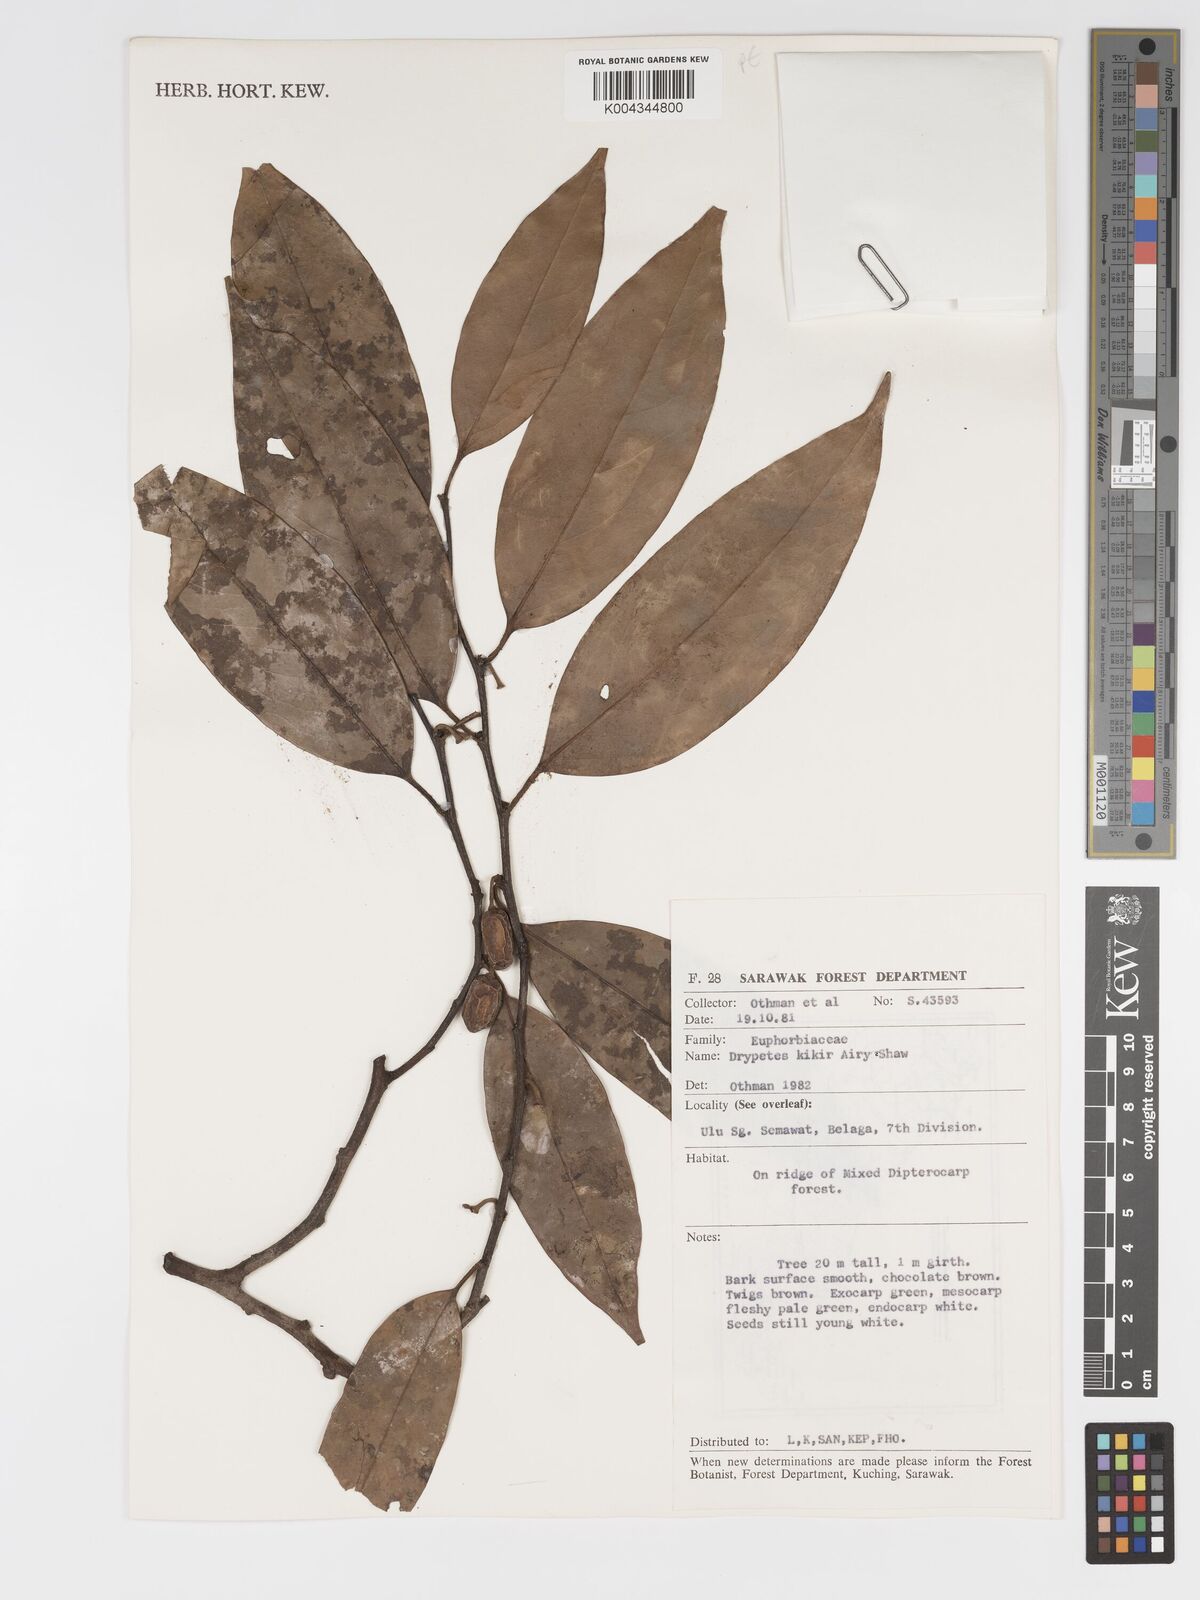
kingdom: Plantae
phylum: Tracheophyta
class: Magnoliopsida
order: Malpighiales
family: Putranjivaceae
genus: Drypetes
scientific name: Drypetes kikir
